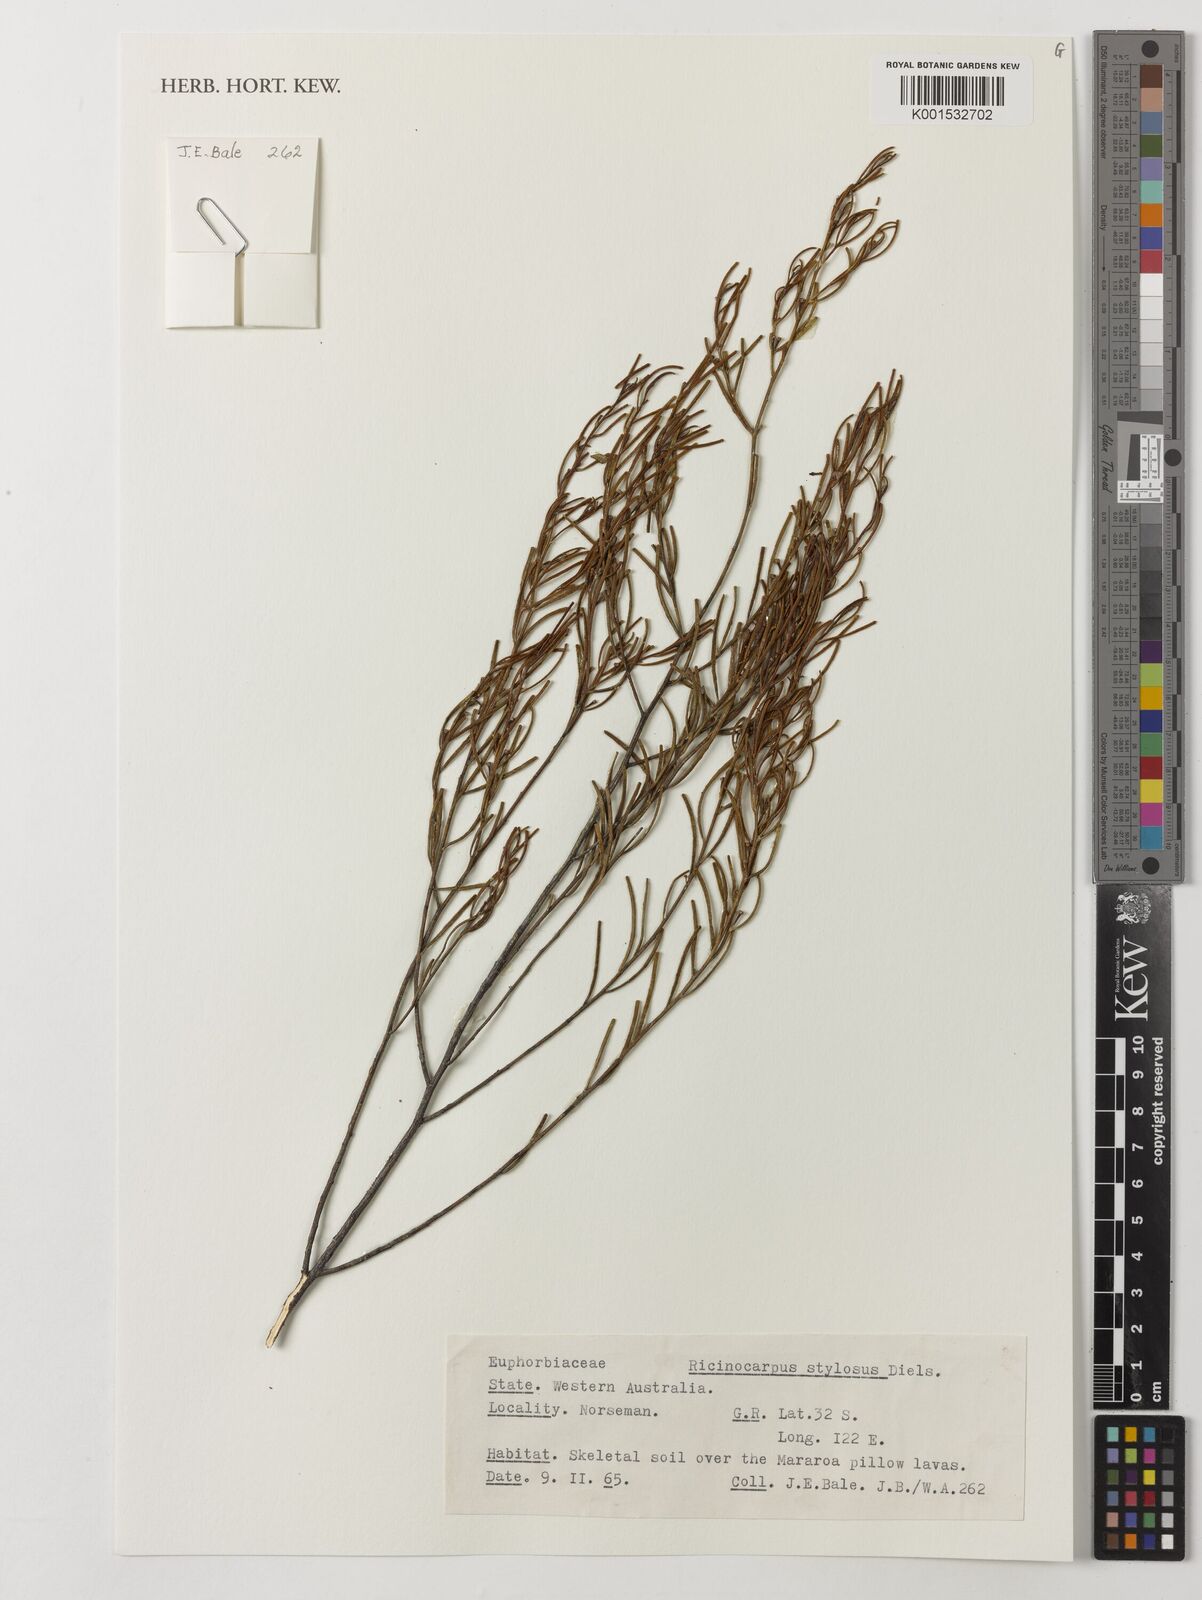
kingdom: Plantae
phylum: Tracheophyta
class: Magnoliopsida
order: Malpighiales
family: Euphorbiaceae
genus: Ricinocarpos
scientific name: Ricinocarpos stylosus
